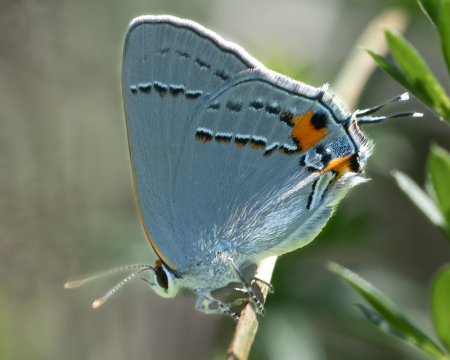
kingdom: Animalia
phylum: Arthropoda
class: Insecta
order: Lepidoptera
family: Lycaenidae
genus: Strymon
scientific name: Strymon melinus
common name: Gray Hairstreak
